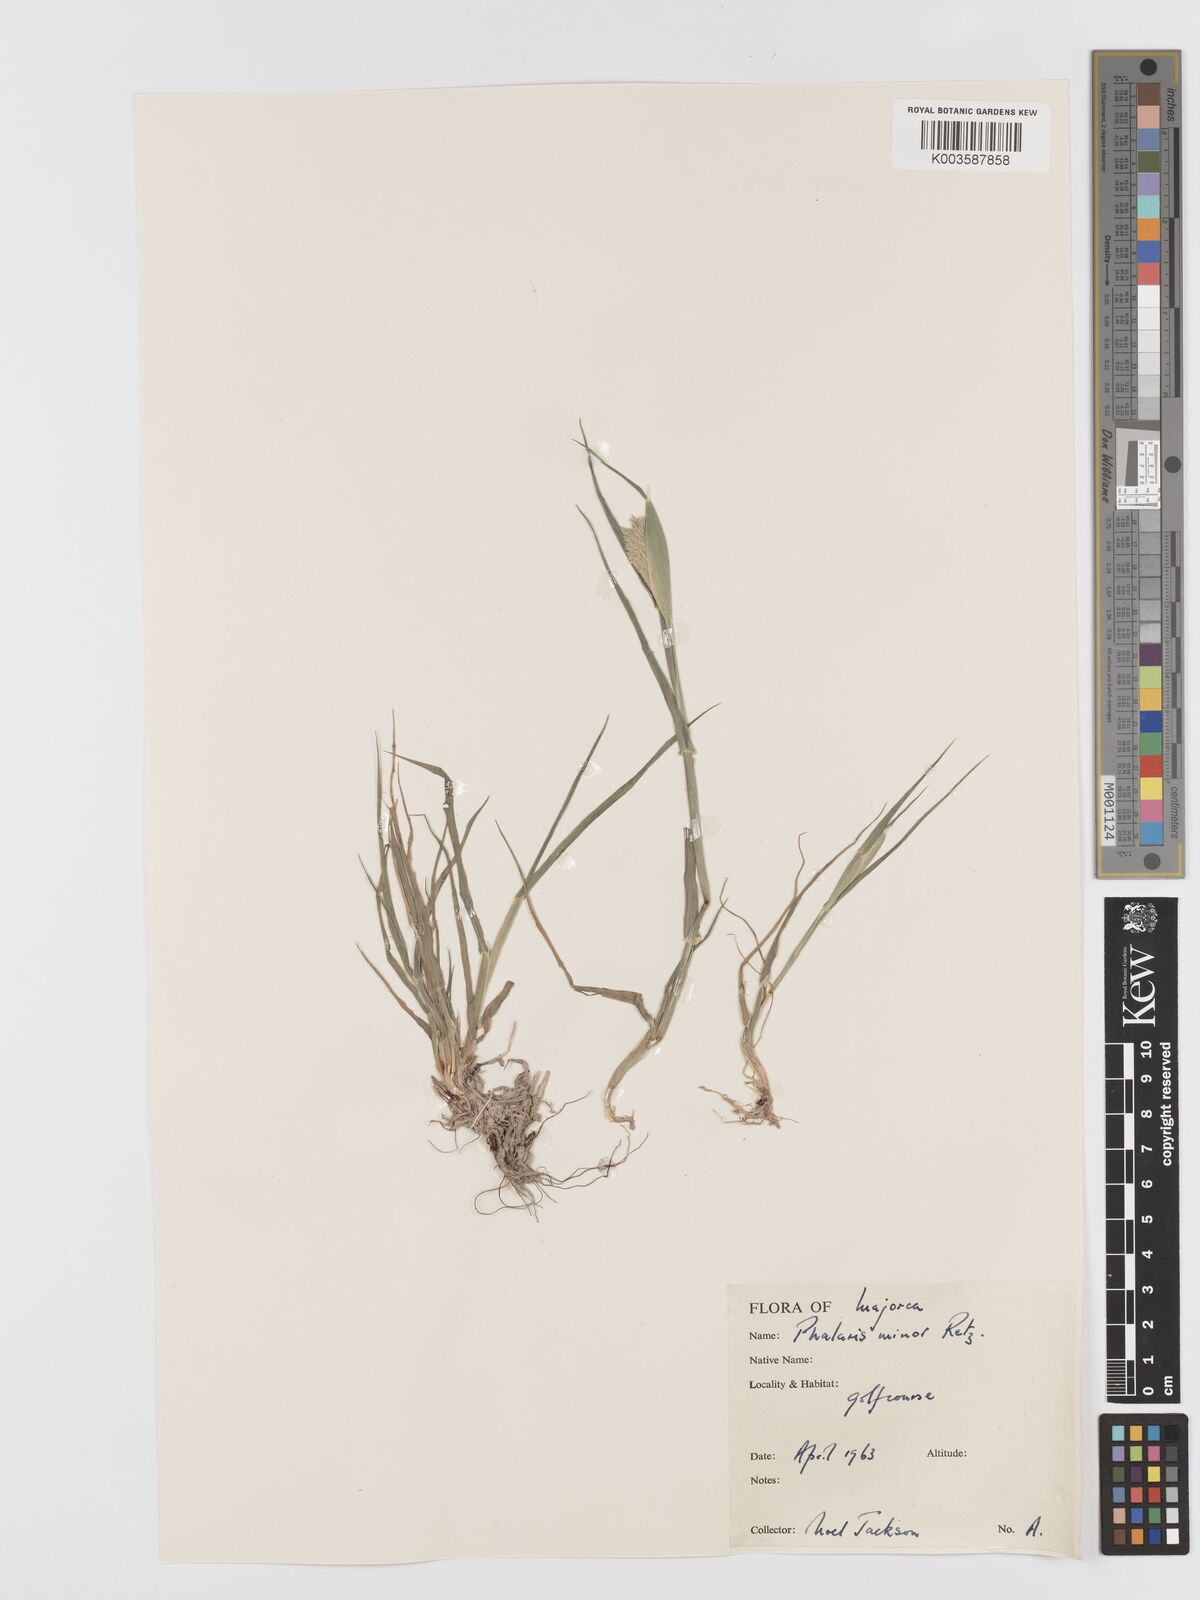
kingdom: Plantae
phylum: Tracheophyta
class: Liliopsida
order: Poales
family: Poaceae
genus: Phalaris
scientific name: Phalaris minor
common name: Littleseed canarygrass
